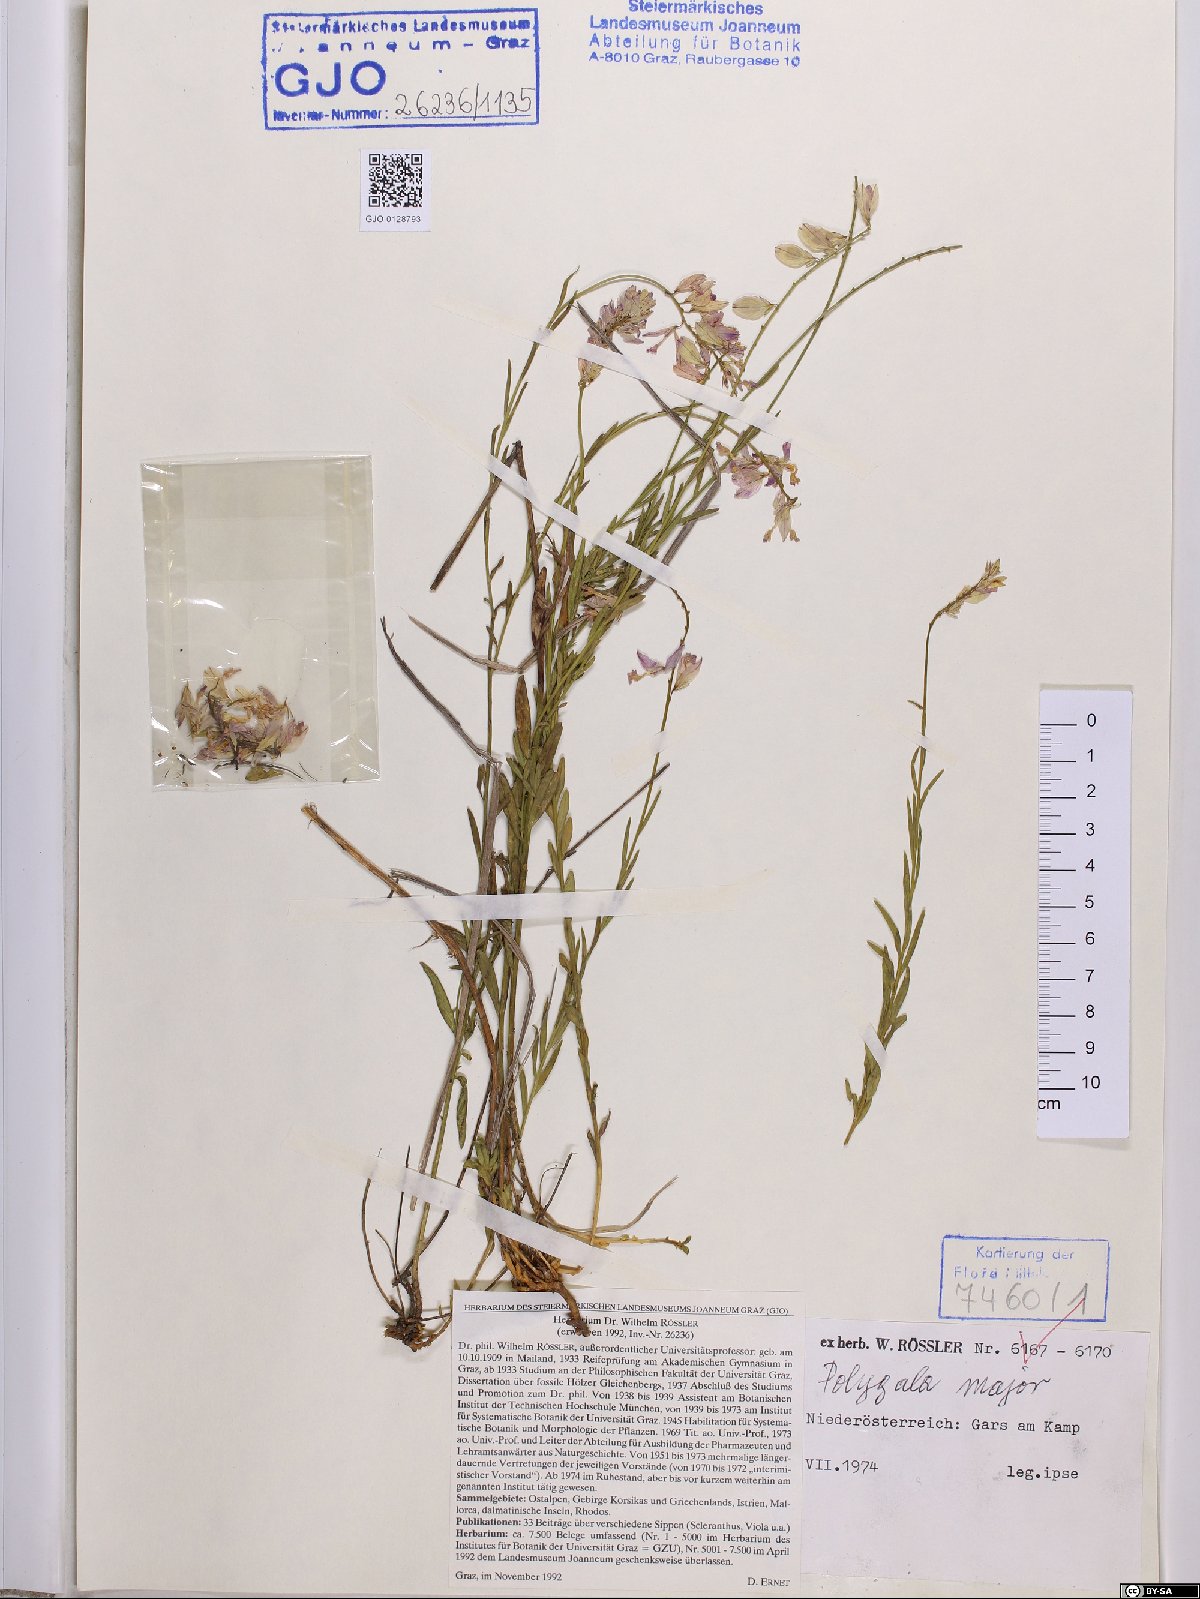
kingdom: Plantae
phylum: Tracheophyta
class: Magnoliopsida
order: Fabales
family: Polygalaceae
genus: Polygala
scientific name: Polygala major
